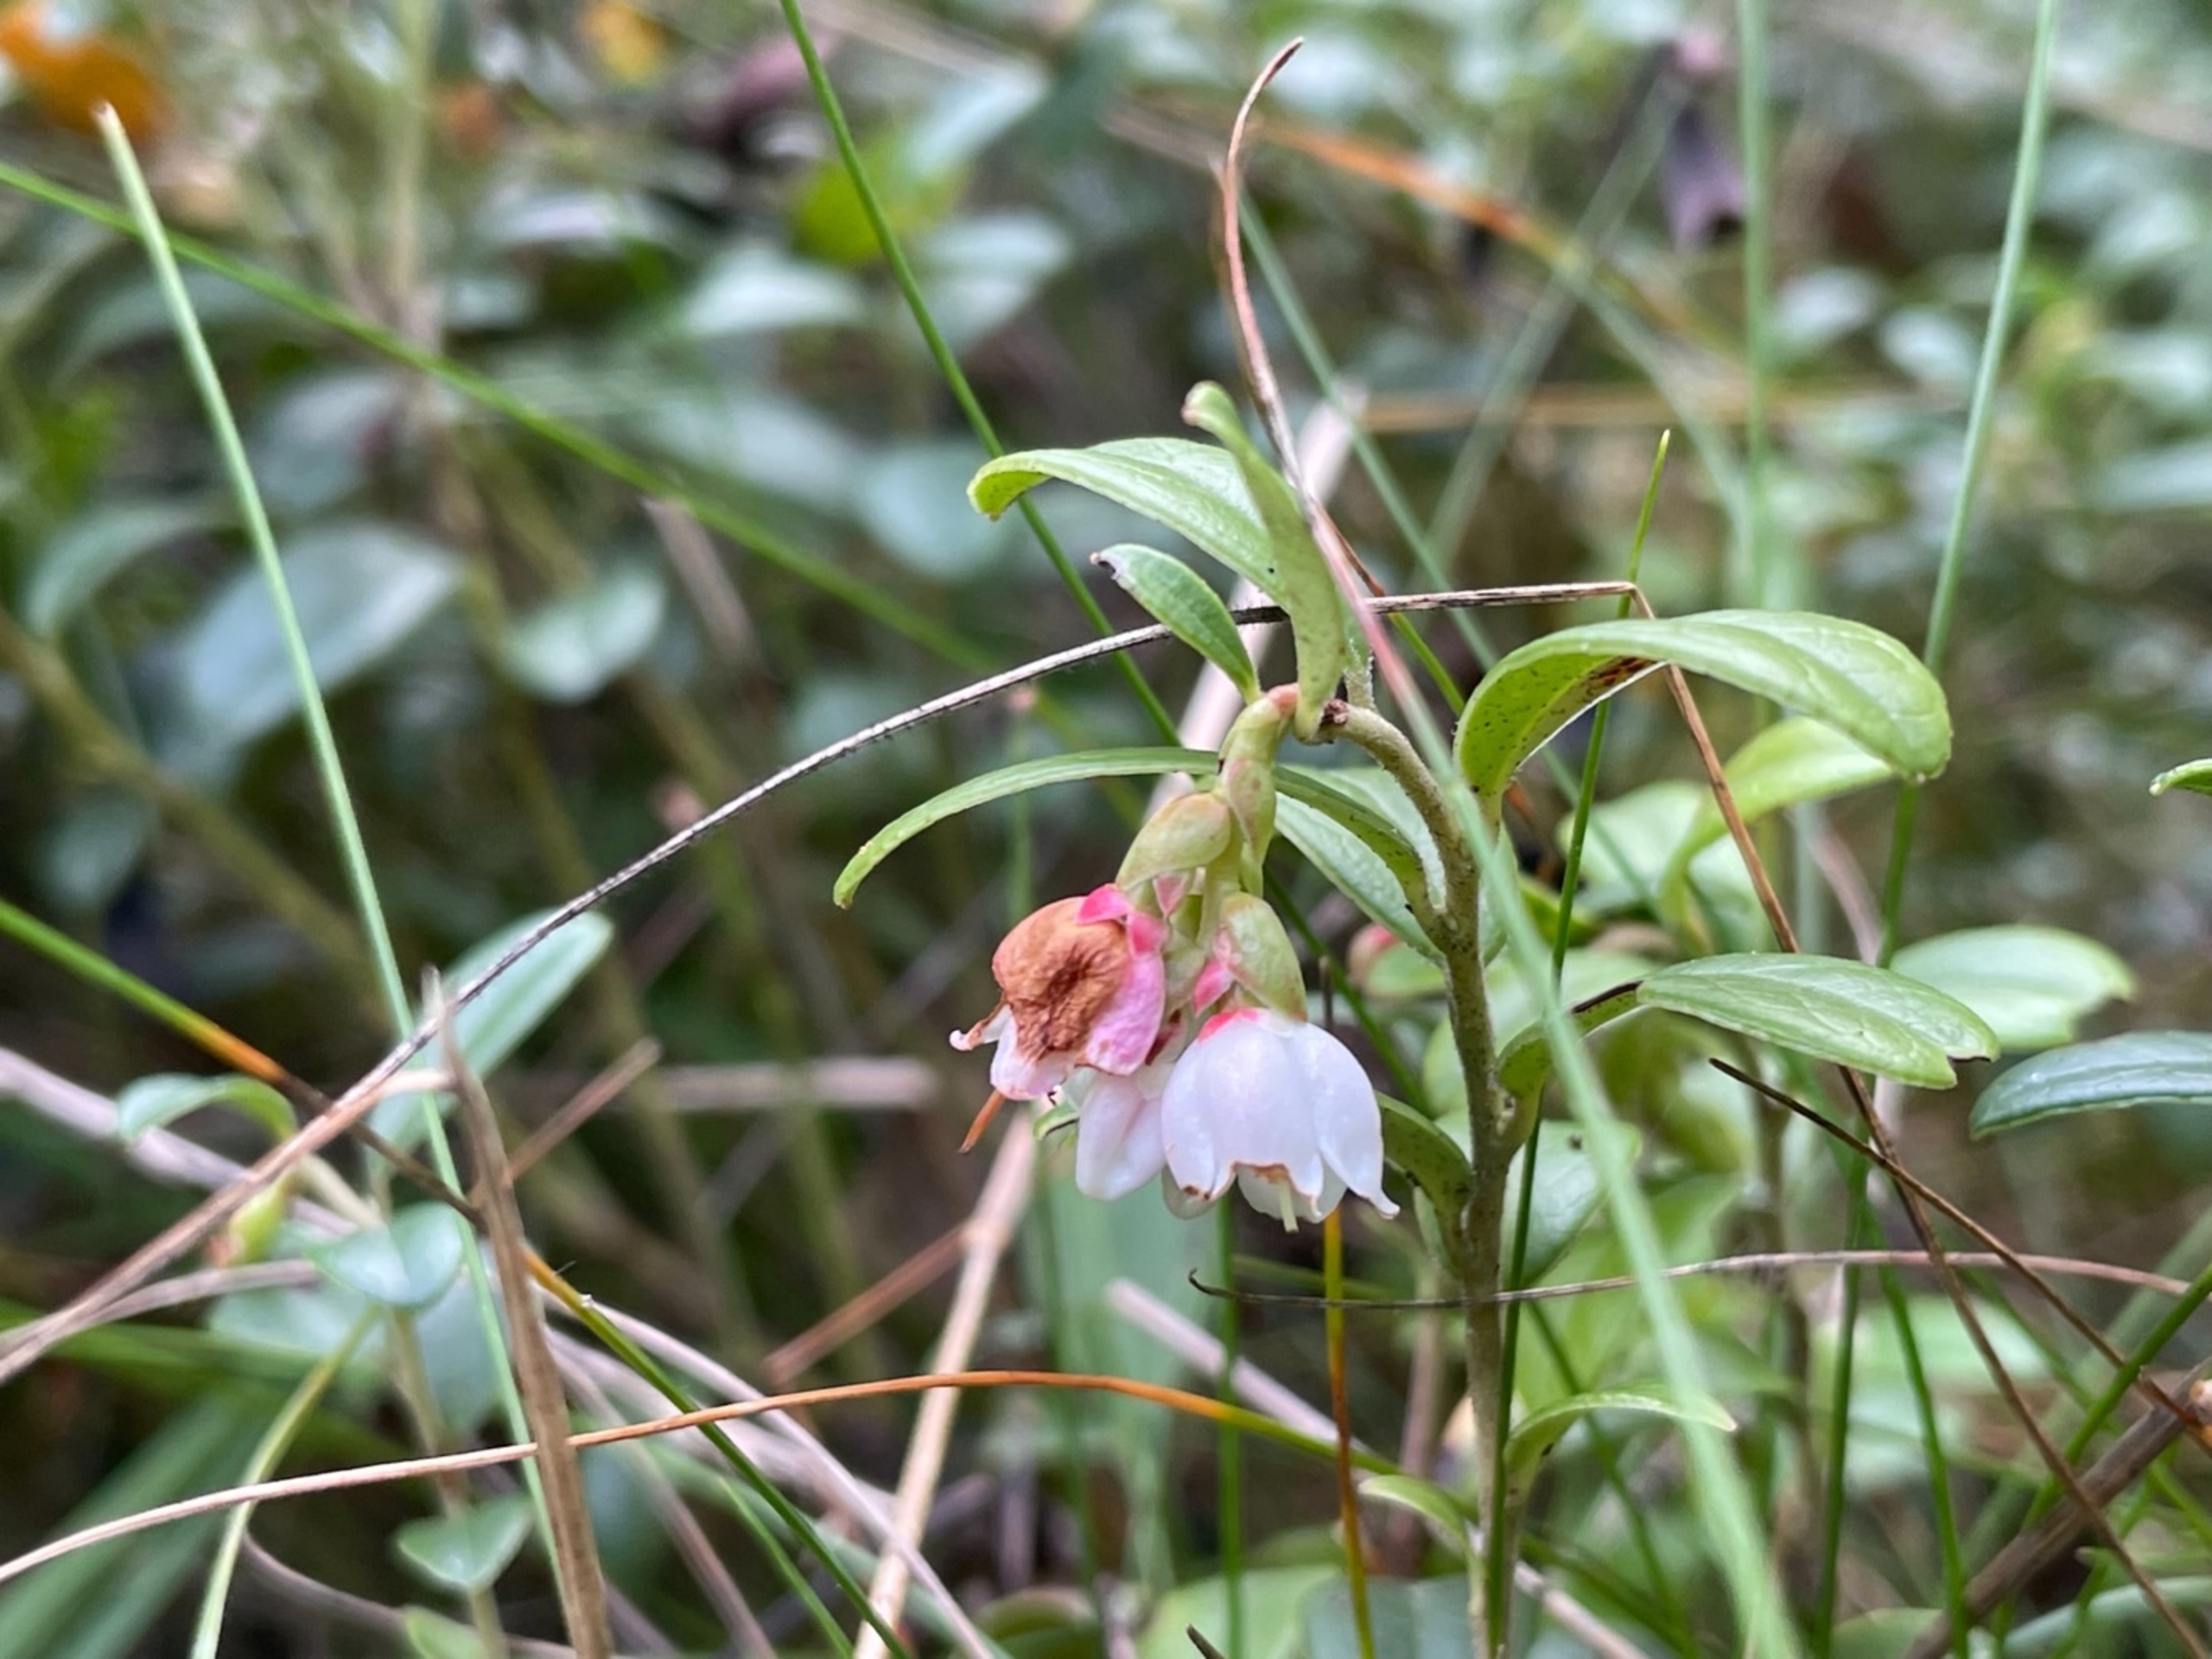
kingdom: Plantae
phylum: Tracheophyta
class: Magnoliopsida
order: Ericales
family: Ericaceae
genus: Vaccinium
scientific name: Vaccinium vitis-idaea
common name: Tyttebær
